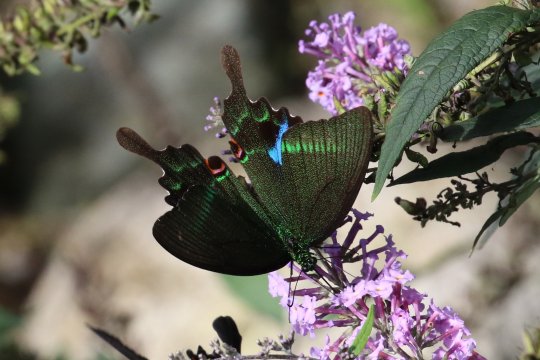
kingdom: Animalia
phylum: Arthropoda
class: Insecta
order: Lepidoptera
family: Papilionidae
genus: Papilio
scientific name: Papilio paris
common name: Paris Peacock Swallowtail
